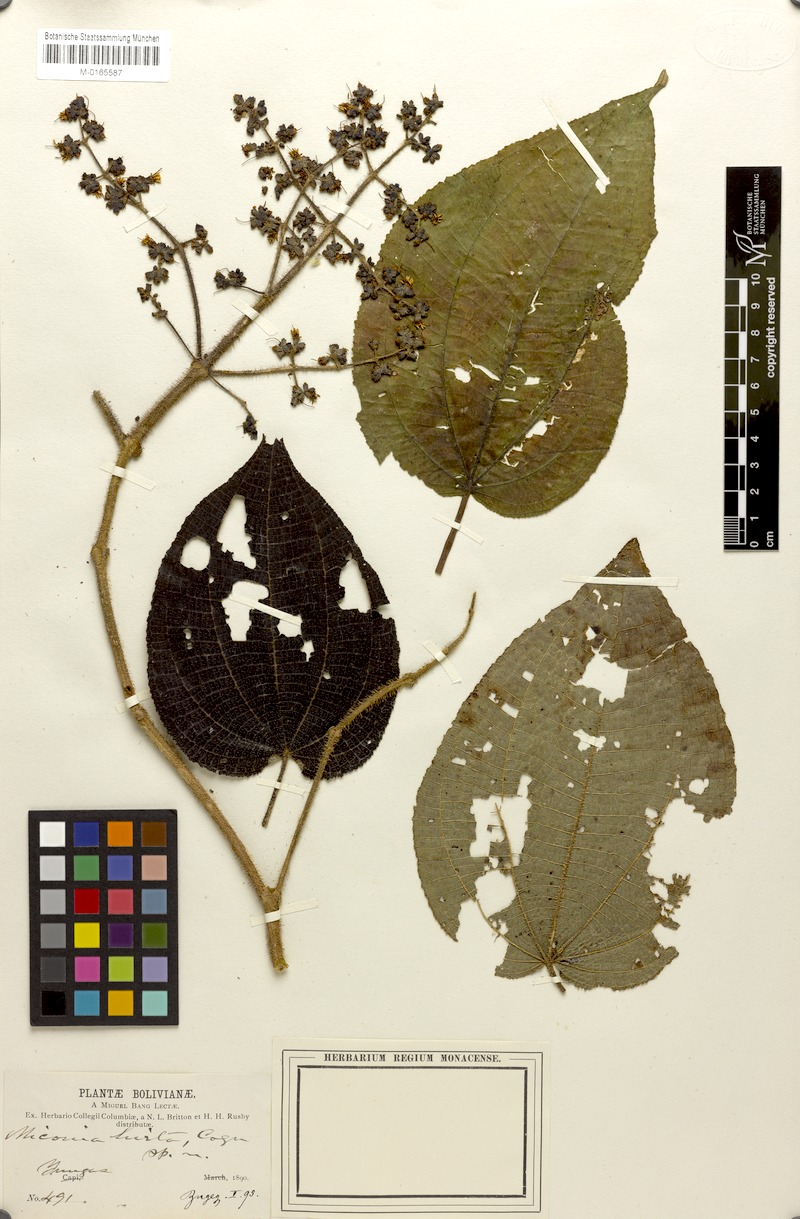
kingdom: Plantae
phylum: Tracheophyta
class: Magnoliopsida
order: Myrtales
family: Melastomataceae
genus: Miconia
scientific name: Miconia hirta
